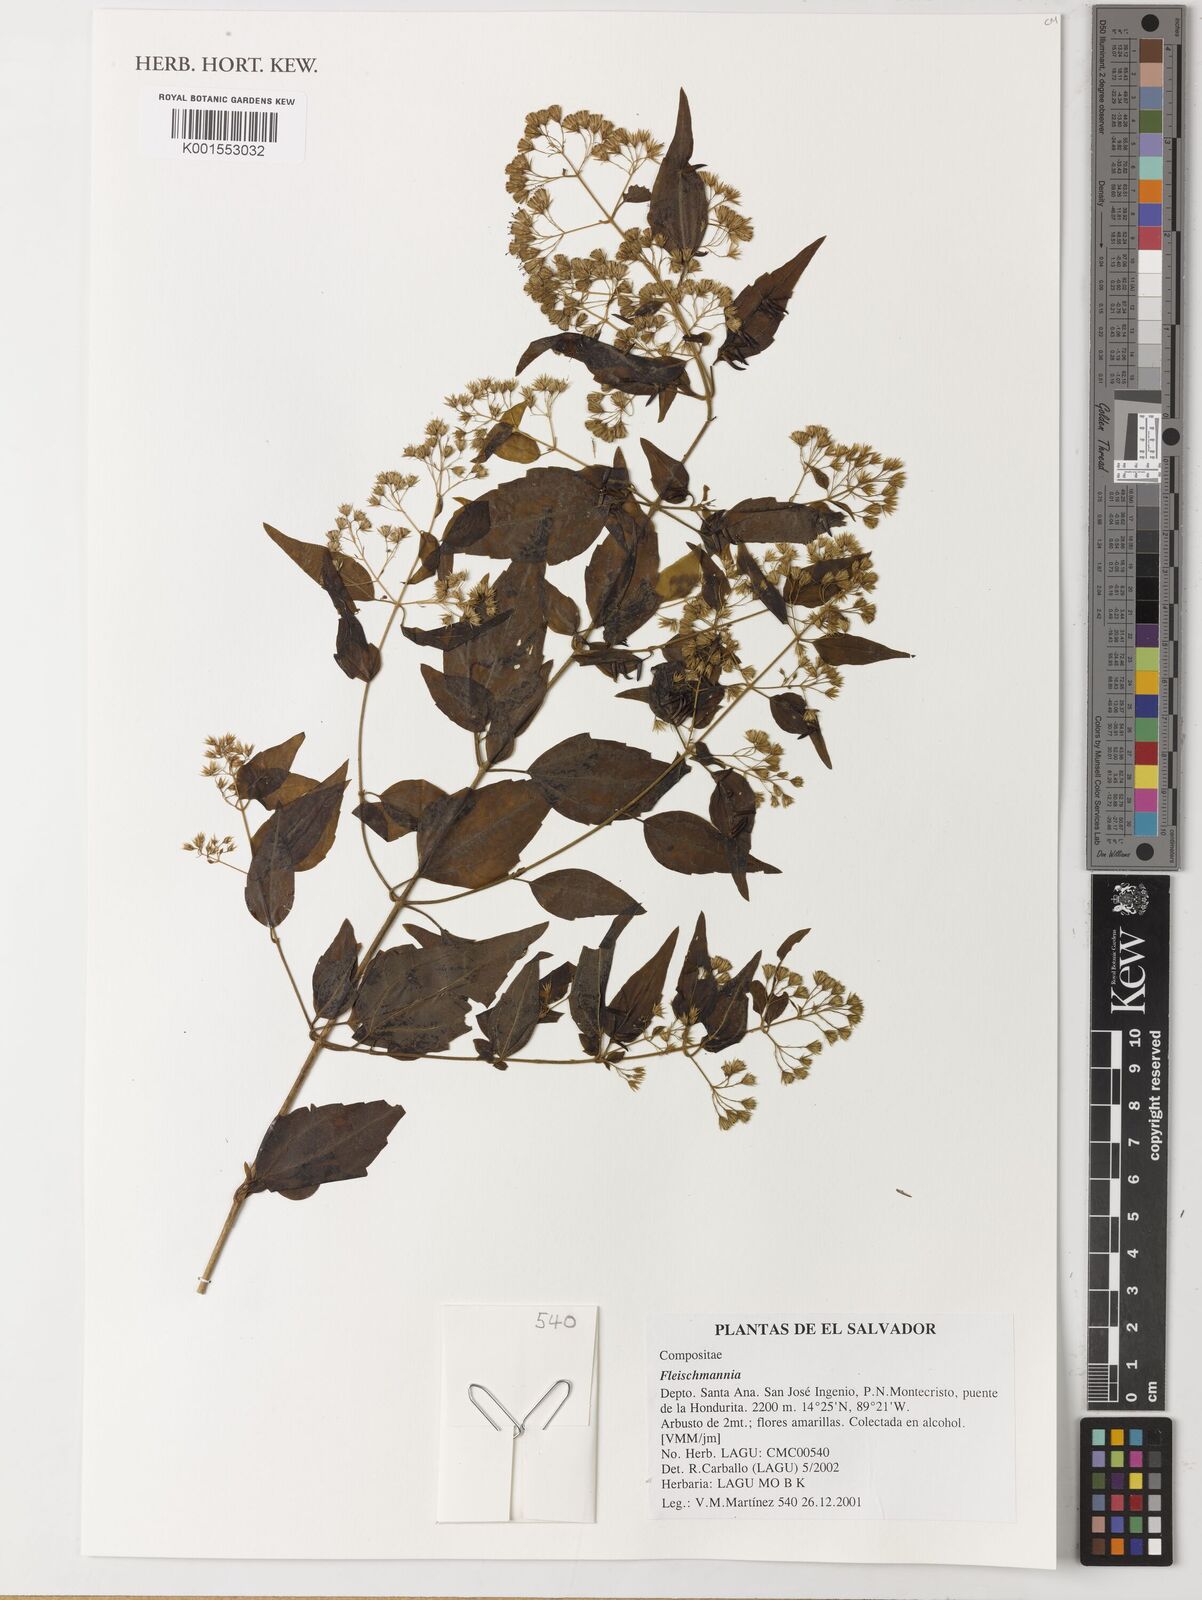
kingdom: Plantae
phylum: Tracheophyta
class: Magnoliopsida
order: Asterales
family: Asteraceae
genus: Fleischmannia
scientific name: Fleischmannia
